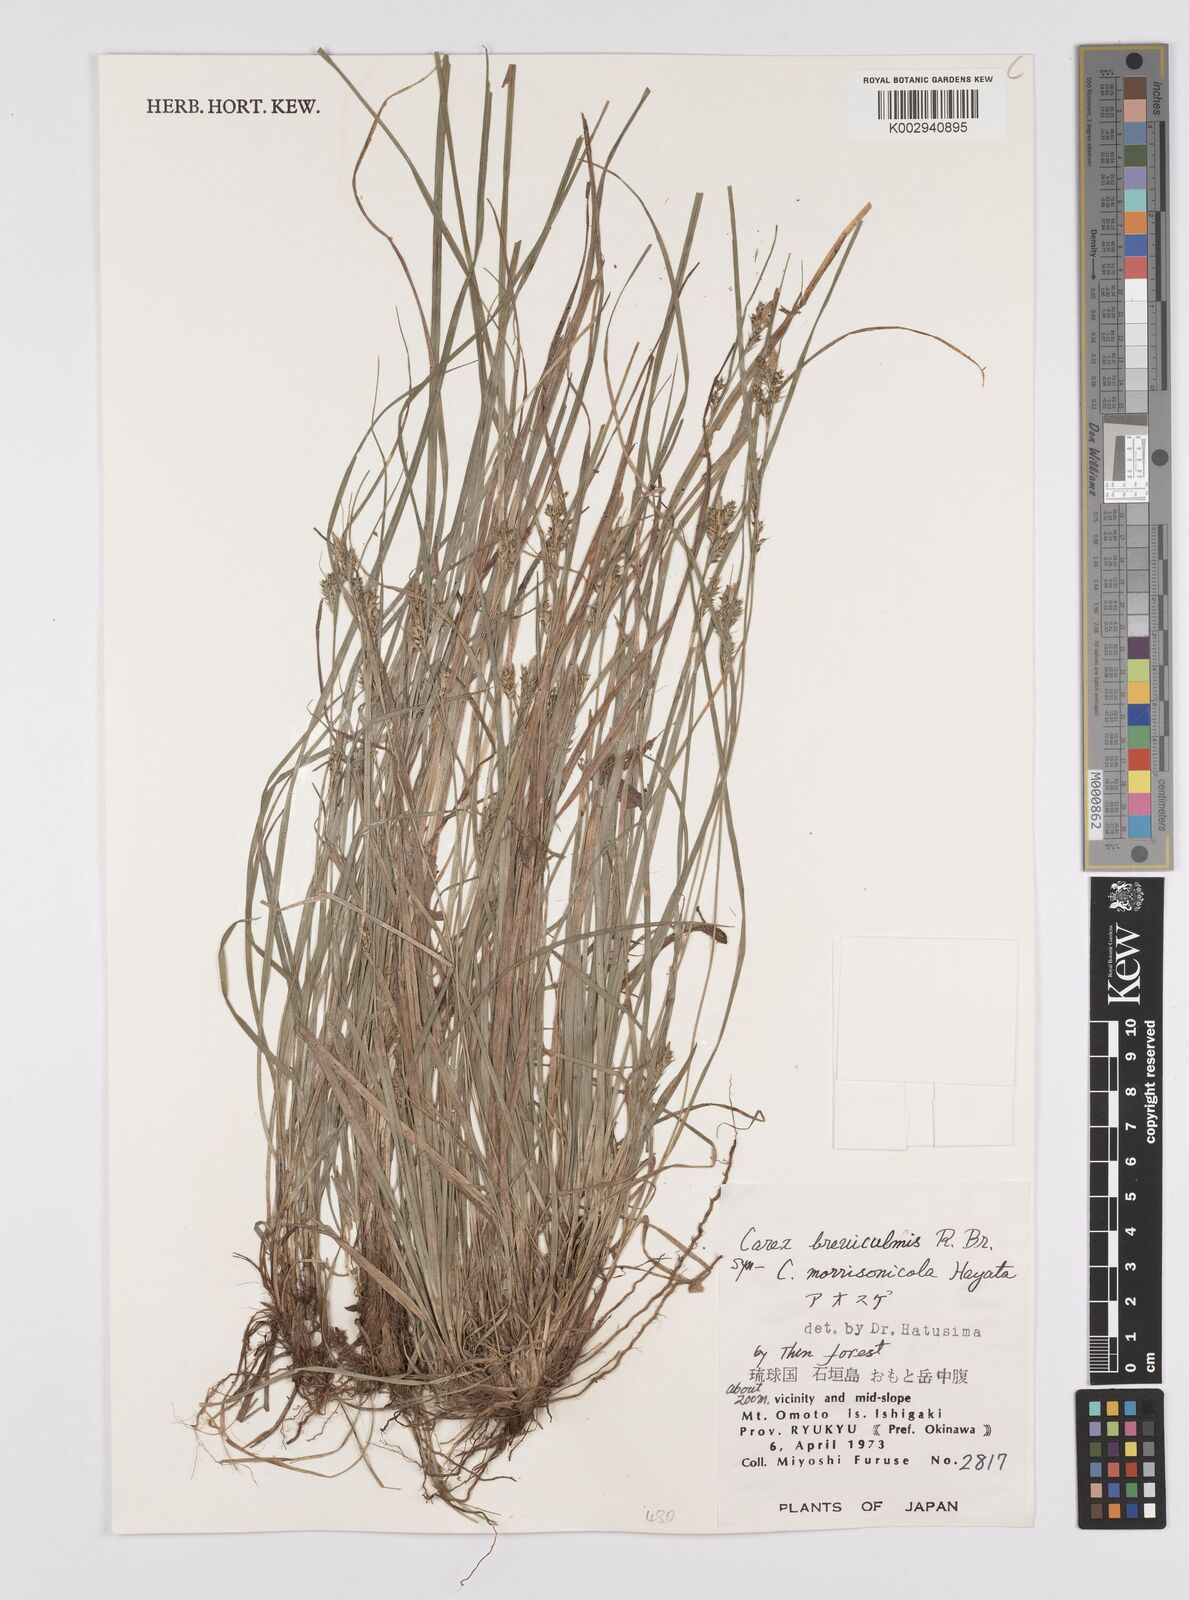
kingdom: Plantae
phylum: Tracheophyta
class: Liliopsida
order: Poales
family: Cyperaceae
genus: Carex
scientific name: Carex breviculmis
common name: Asian shortstem sedge
